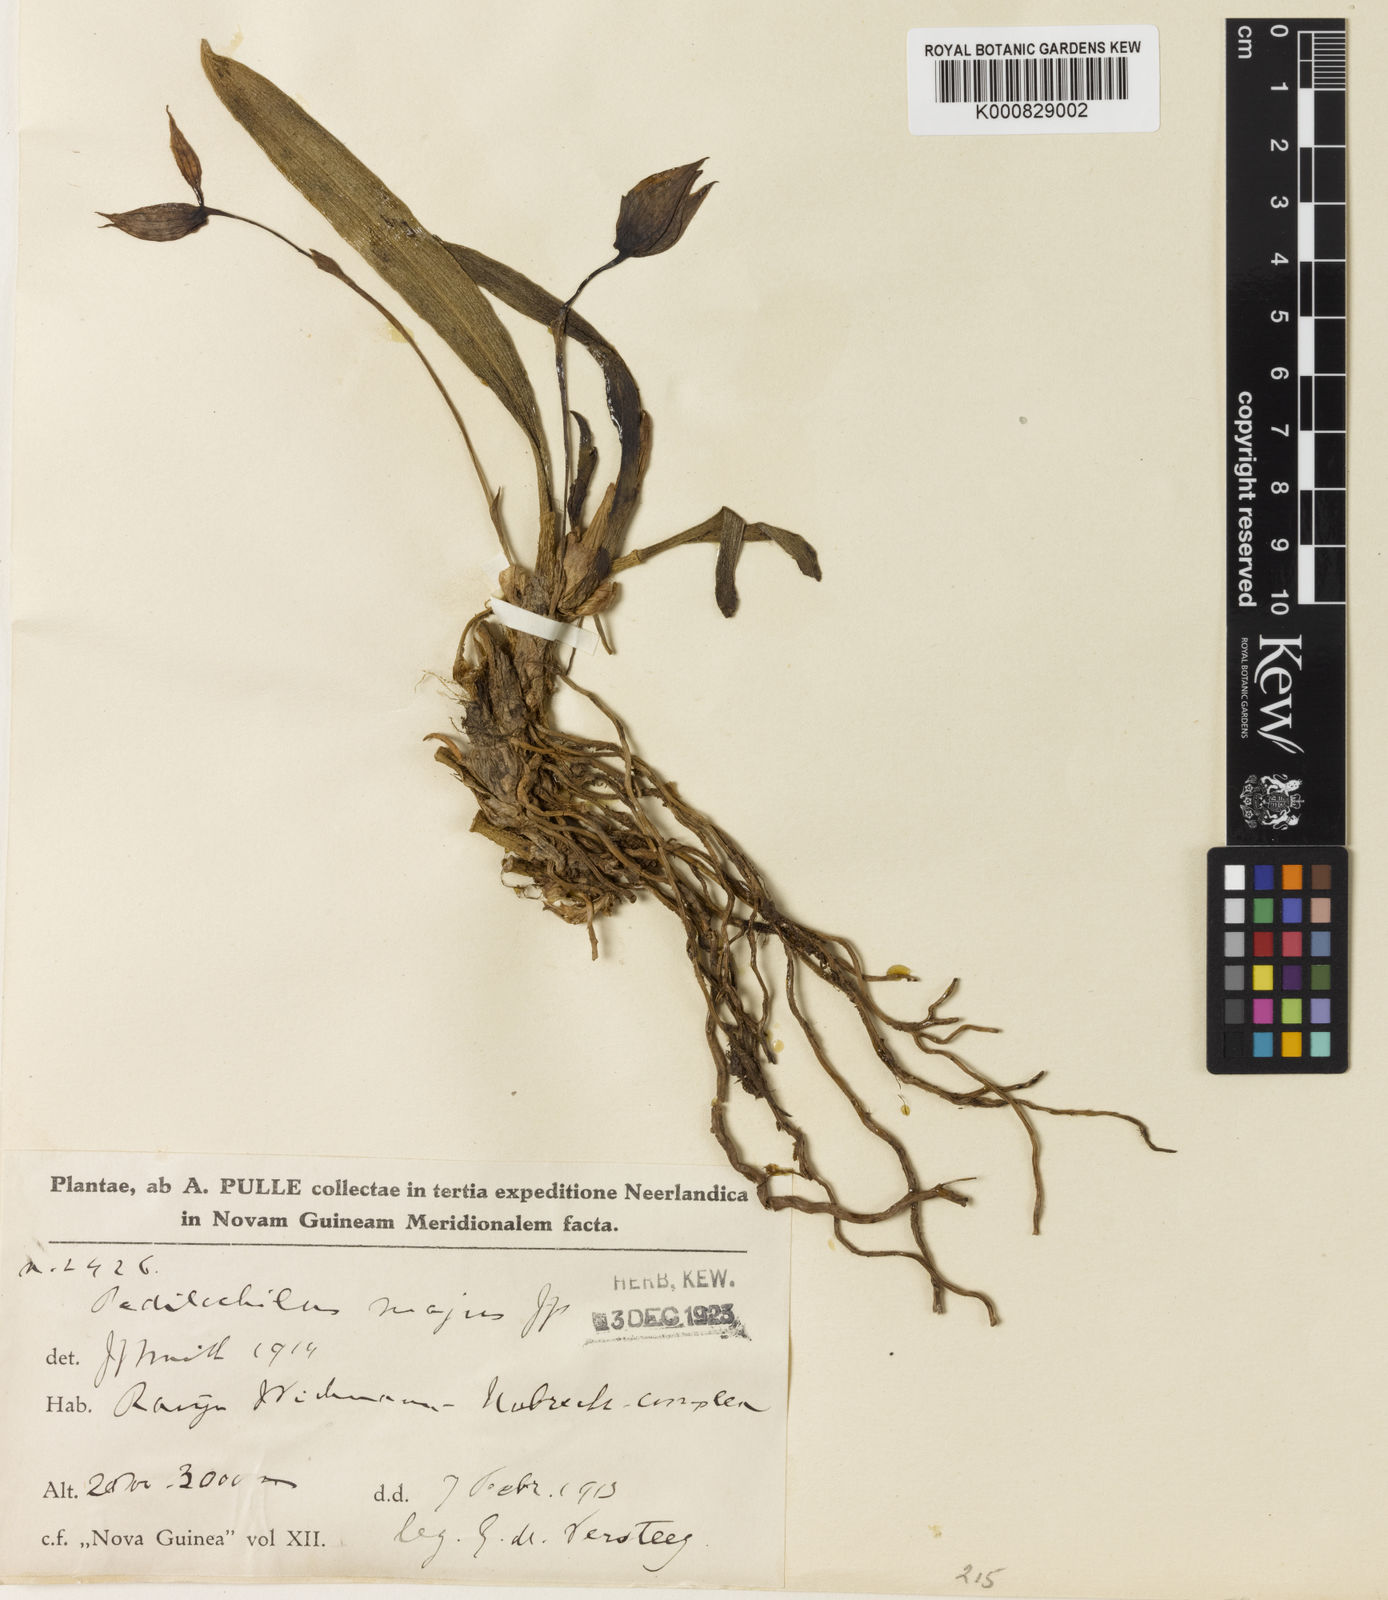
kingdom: Plantae
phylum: Tracheophyta
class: Liliopsida
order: Asparagales
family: Orchidaceae
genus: Bulbophyllum
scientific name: Bulbophyllum
